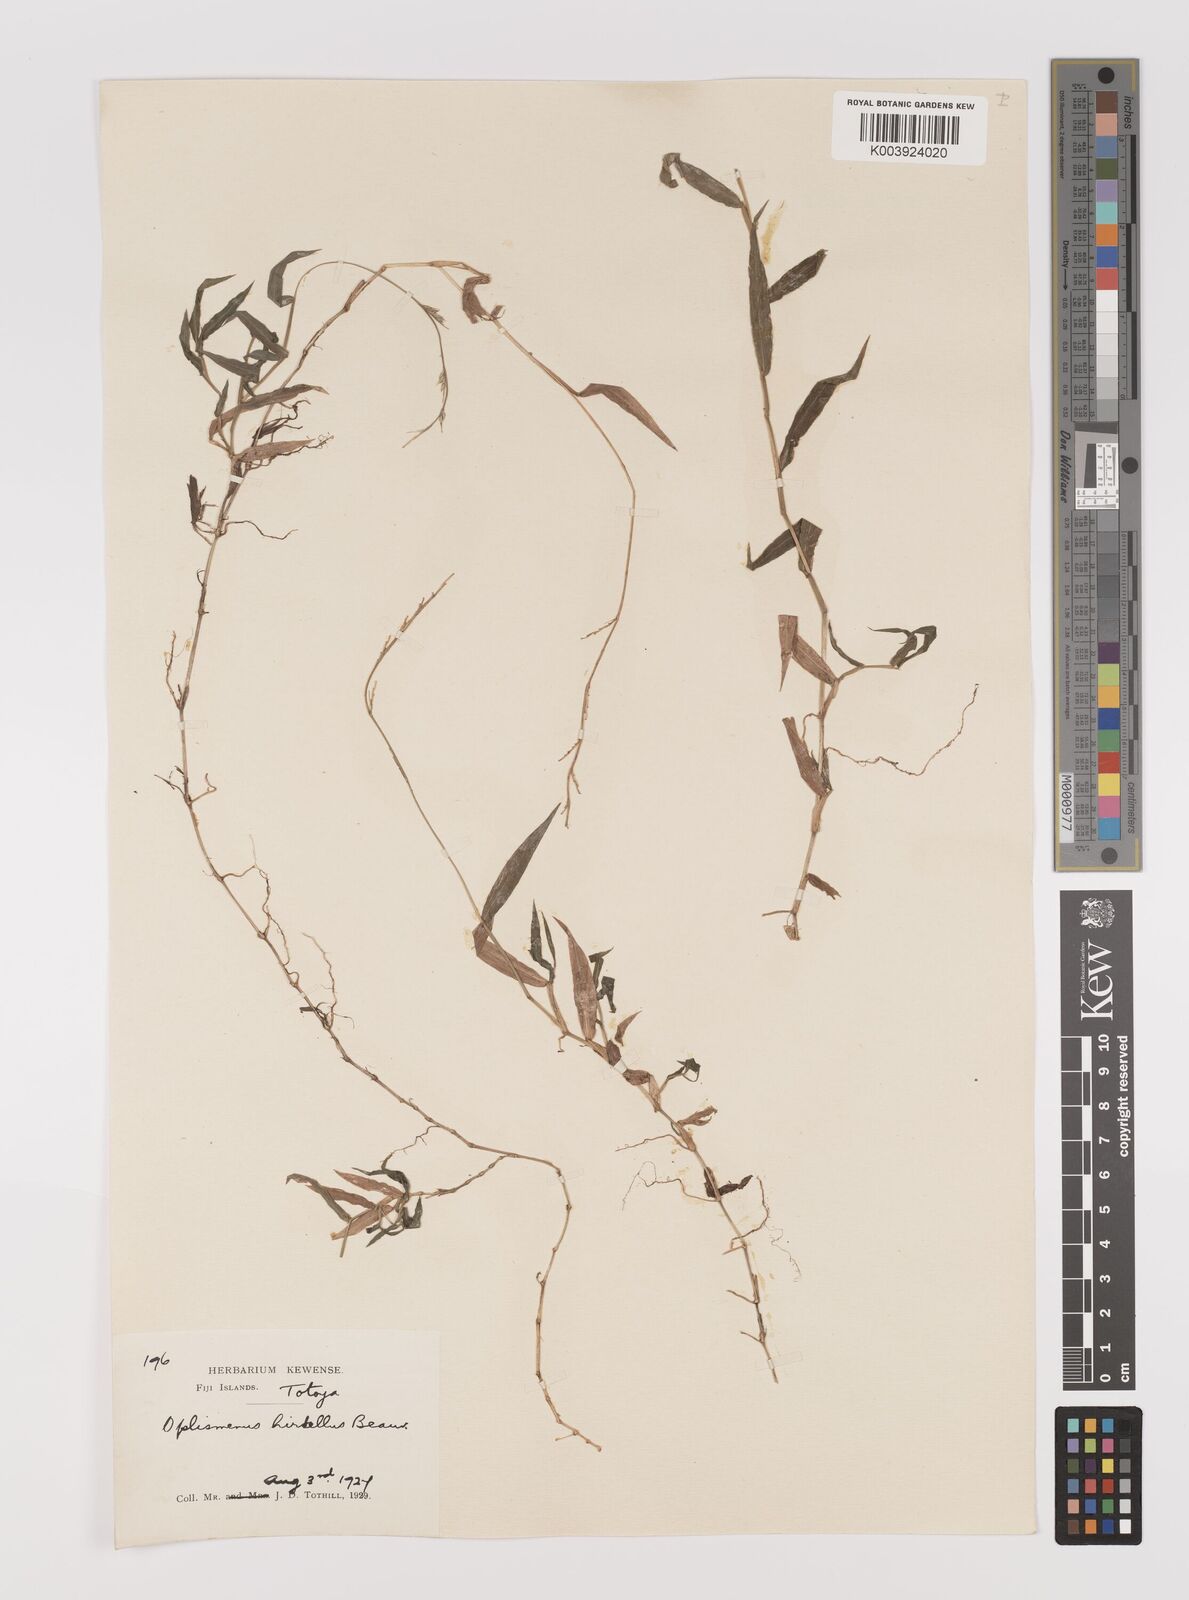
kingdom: Plantae
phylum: Tracheophyta
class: Liliopsida
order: Poales
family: Poaceae
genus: Oplismenus
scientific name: Oplismenus hirtellus
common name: Basketgrass
